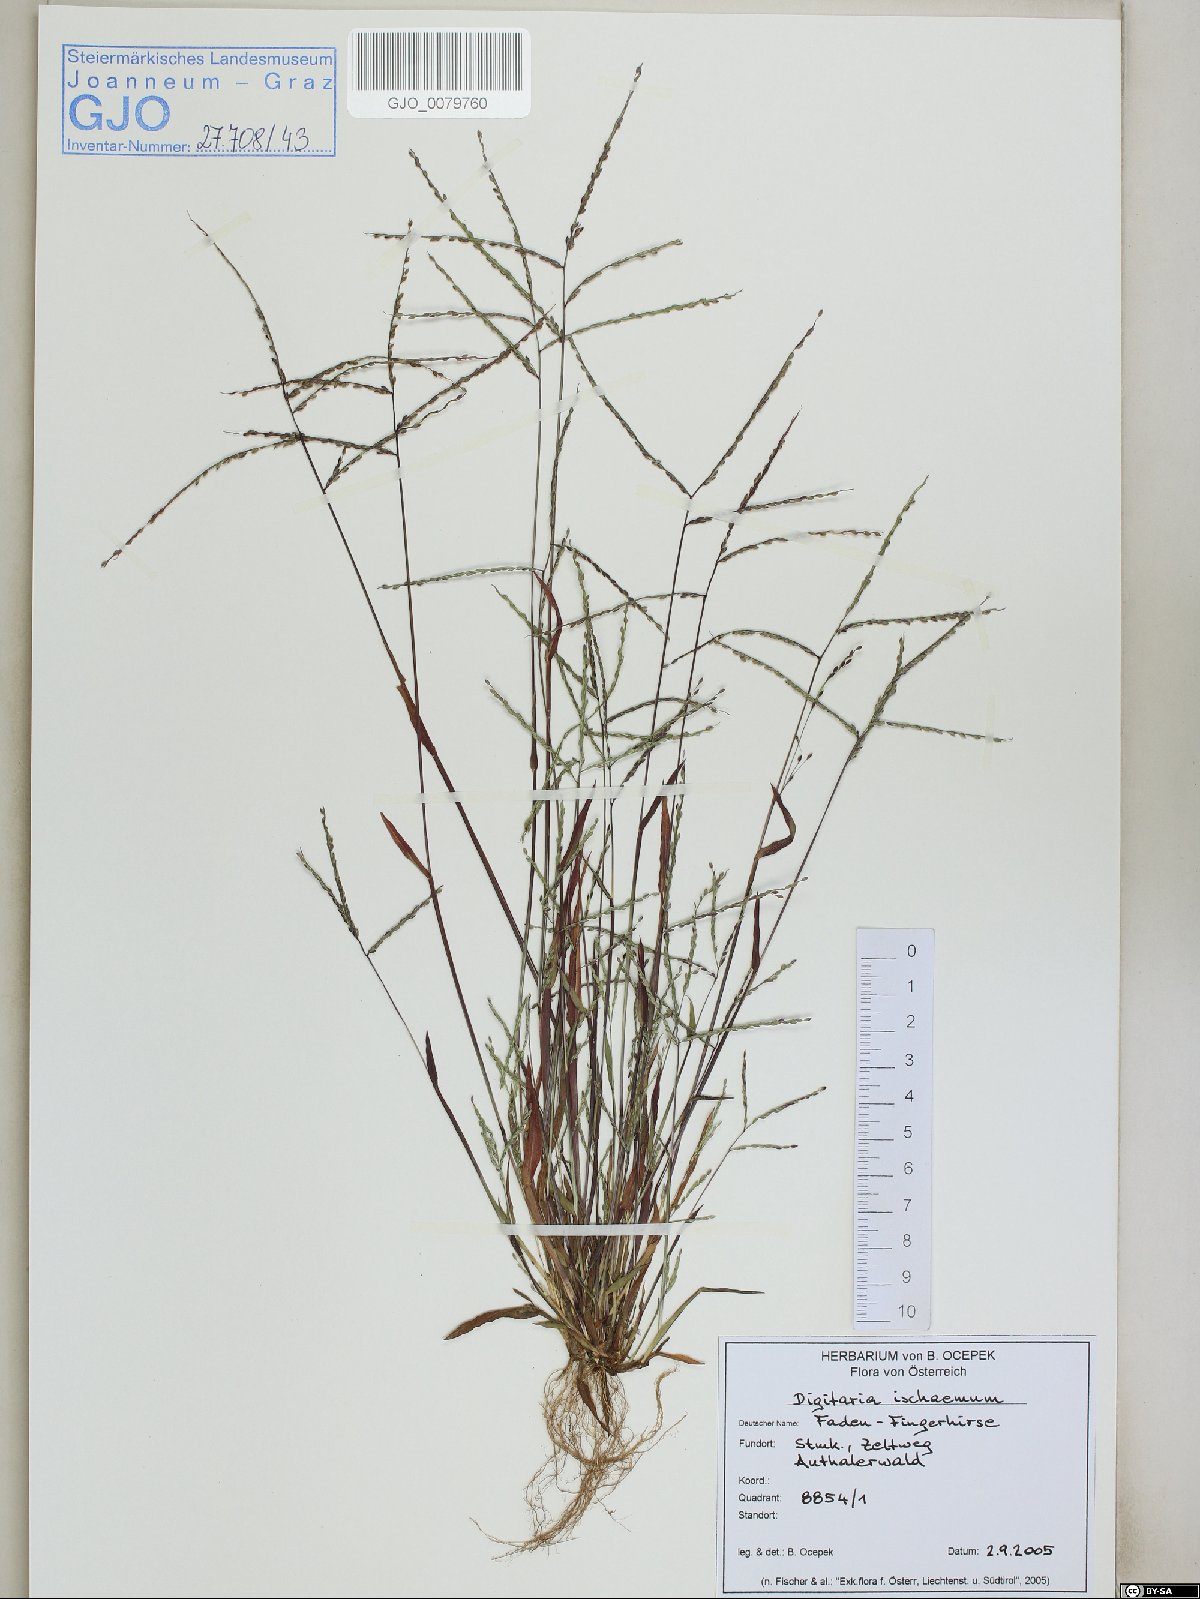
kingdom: Plantae
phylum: Tracheophyta
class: Liliopsida
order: Poales
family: Poaceae
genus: Digitaria
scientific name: Digitaria ischaemum
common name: Smooth crabgrass
